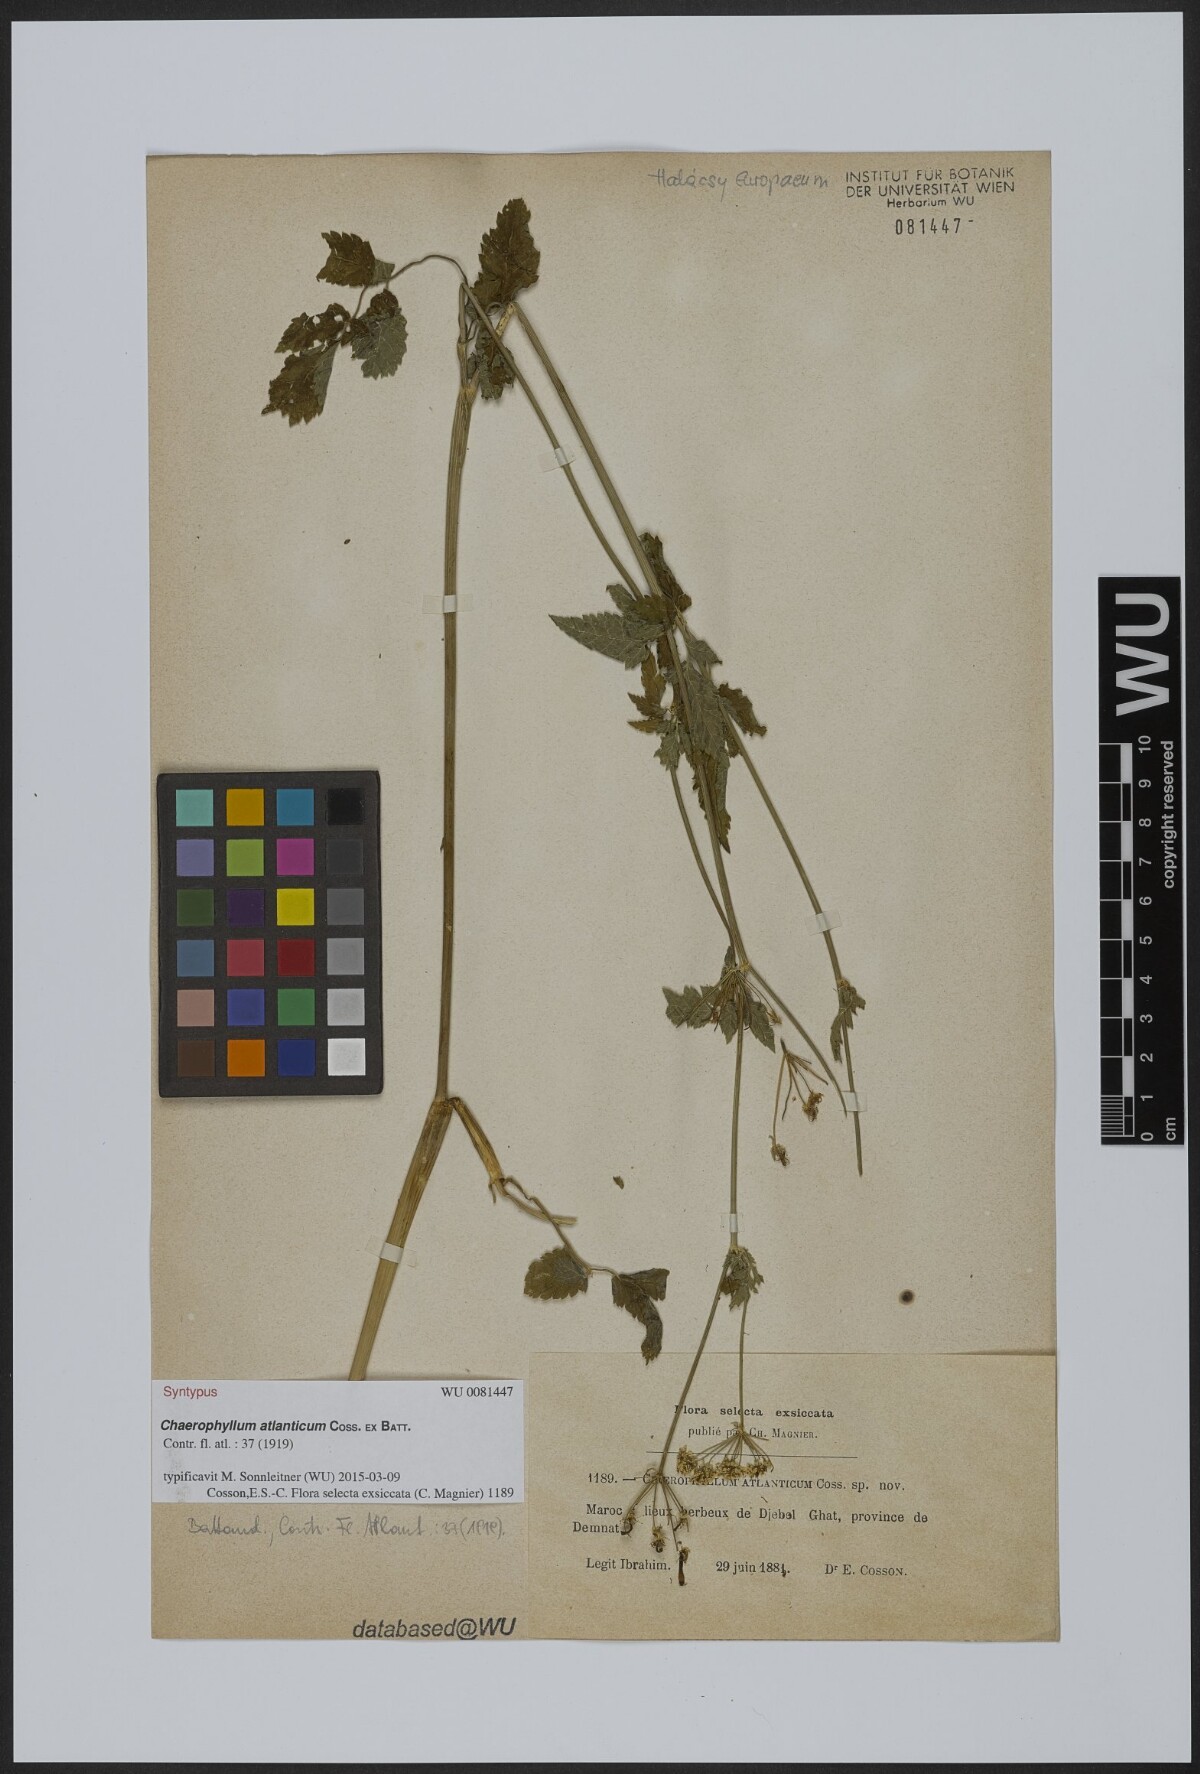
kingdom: Plantae
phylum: Tracheophyta
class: Magnoliopsida
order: Apiales
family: Apiaceae
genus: Chaerophyllum
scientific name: Chaerophyllum atlanticum
